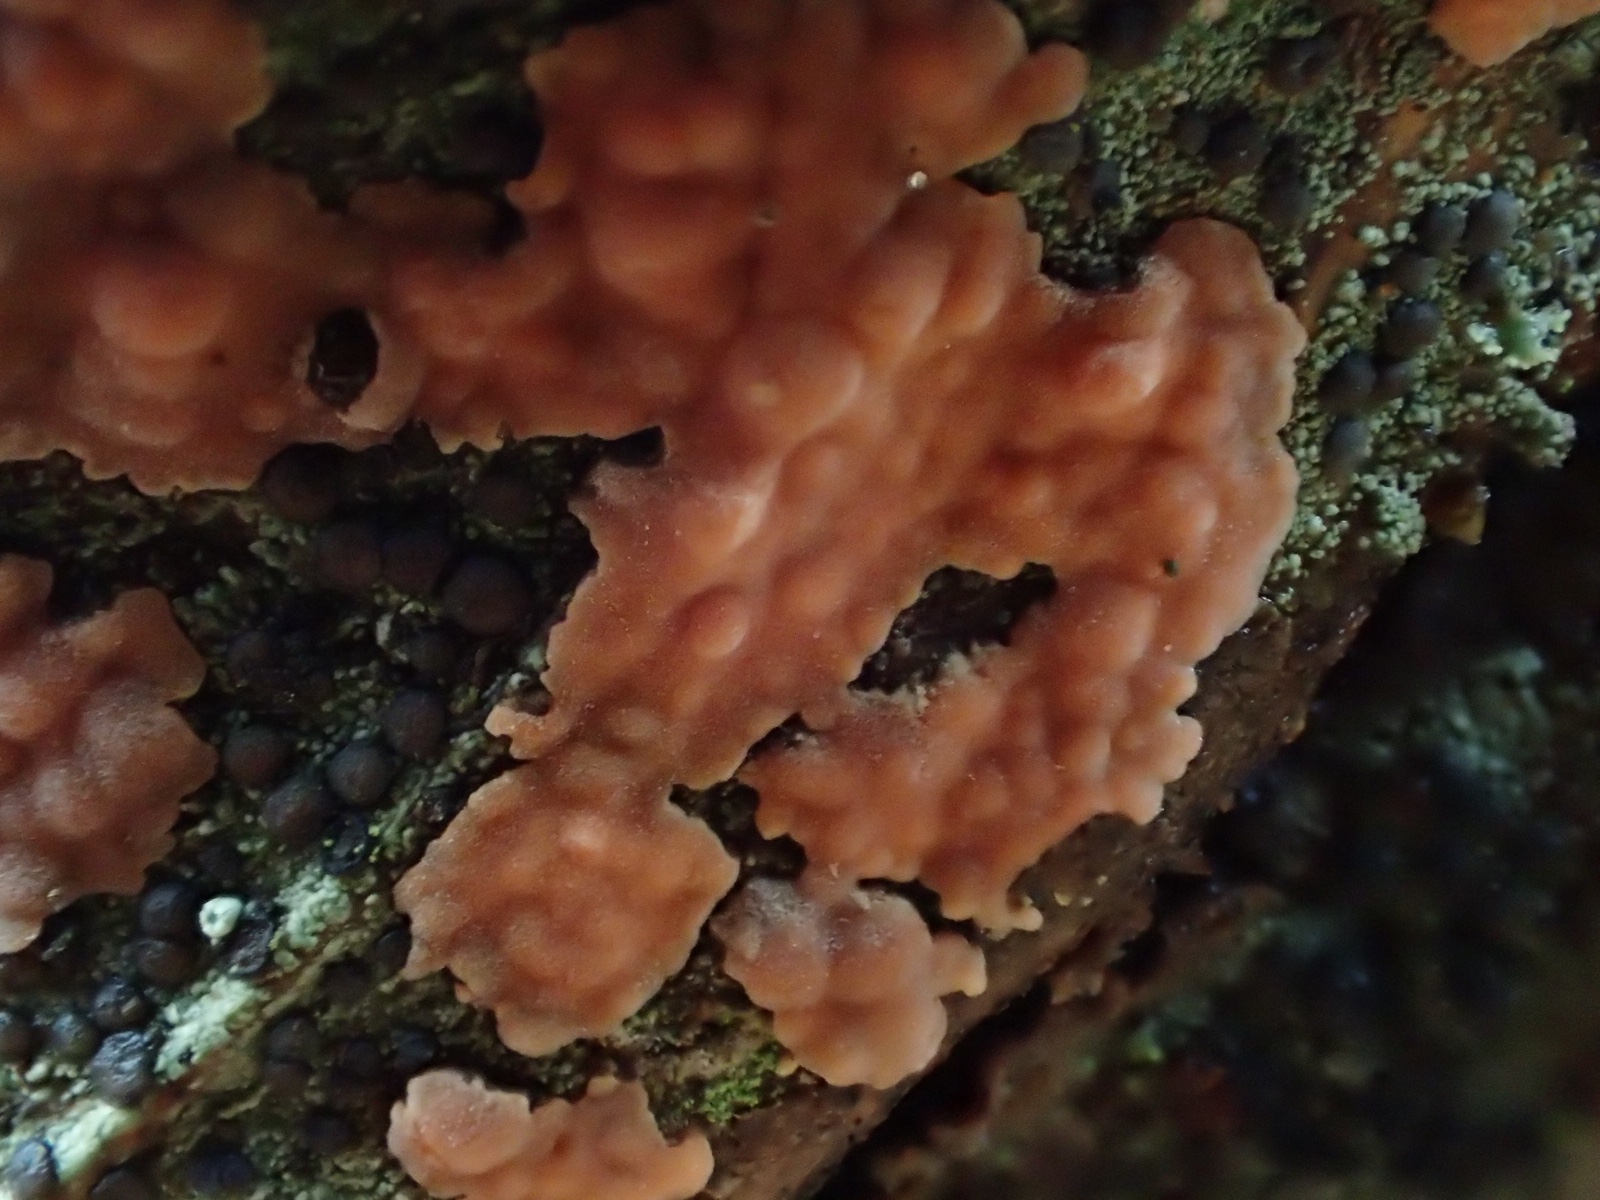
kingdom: Fungi
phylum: Basidiomycota
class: Agaricomycetes
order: Russulales
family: Peniophoraceae
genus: Peniophora
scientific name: Peniophora incarnata
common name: laksefarvet voksskind
